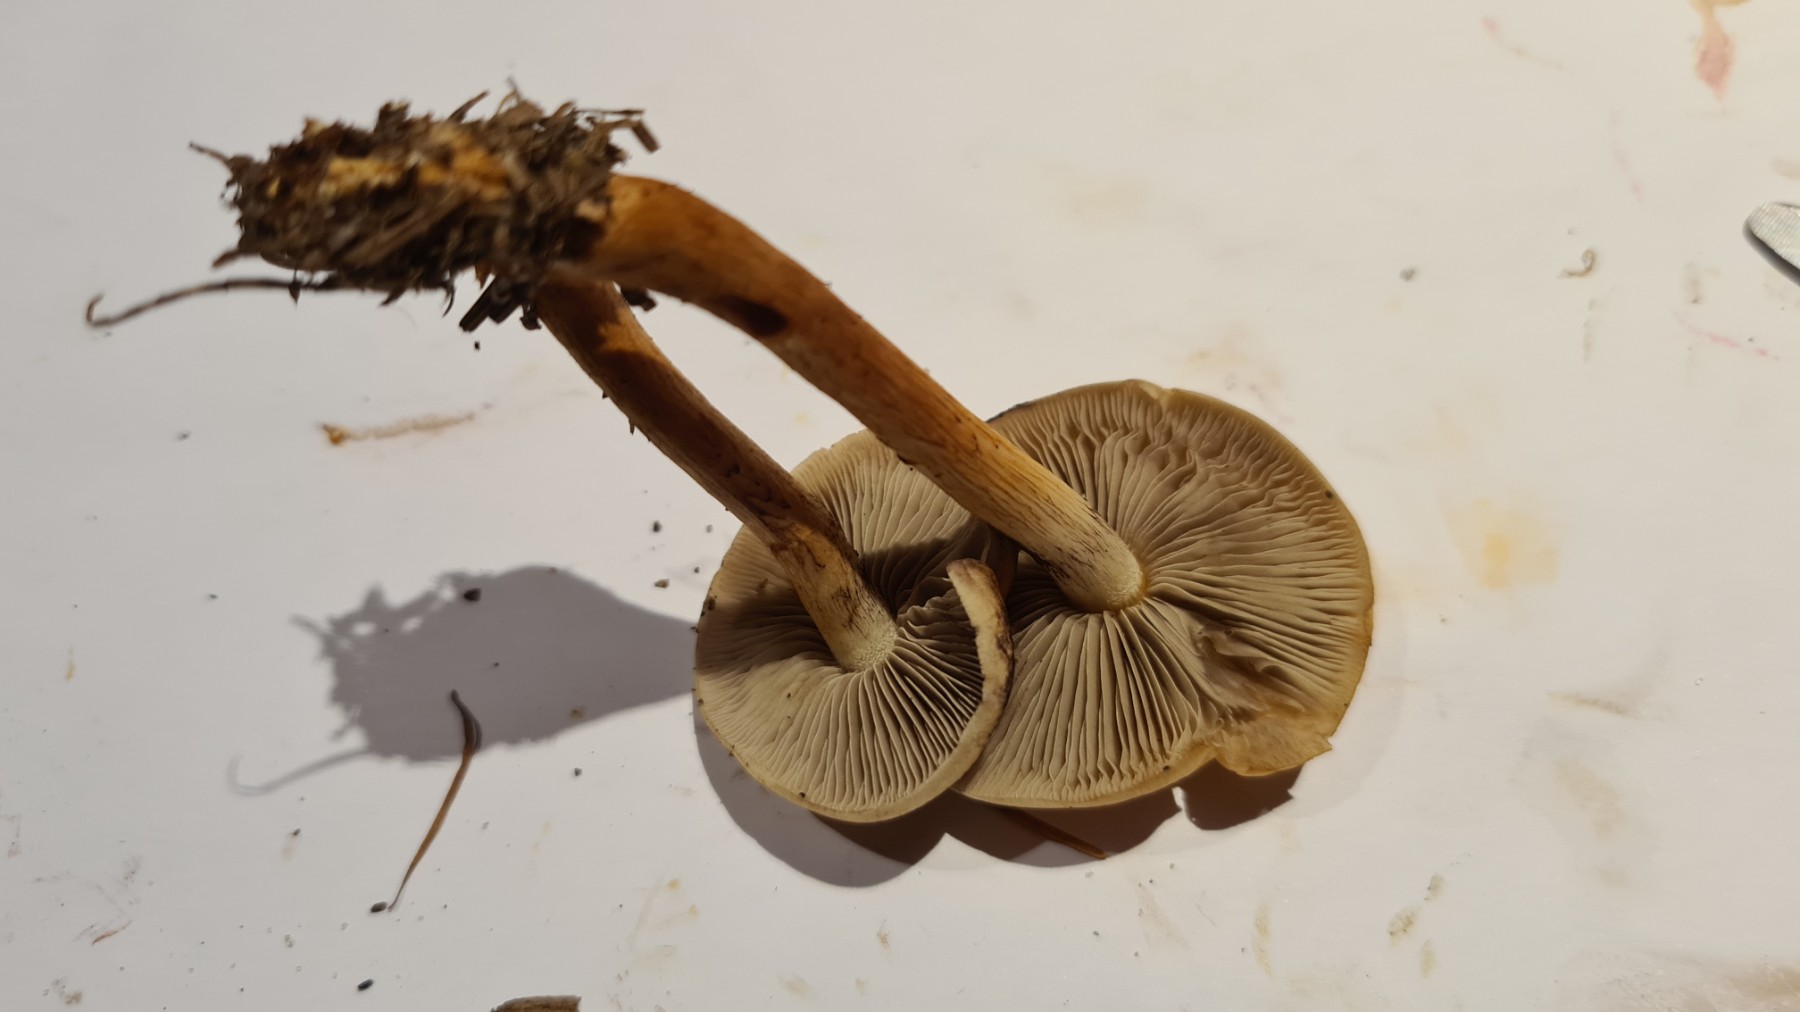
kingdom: Fungi
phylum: Basidiomycota
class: Agaricomycetes
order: Agaricales
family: Strophariaceae
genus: Hypholoma
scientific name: Hypholoma capnoides
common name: gran-svovlhat
